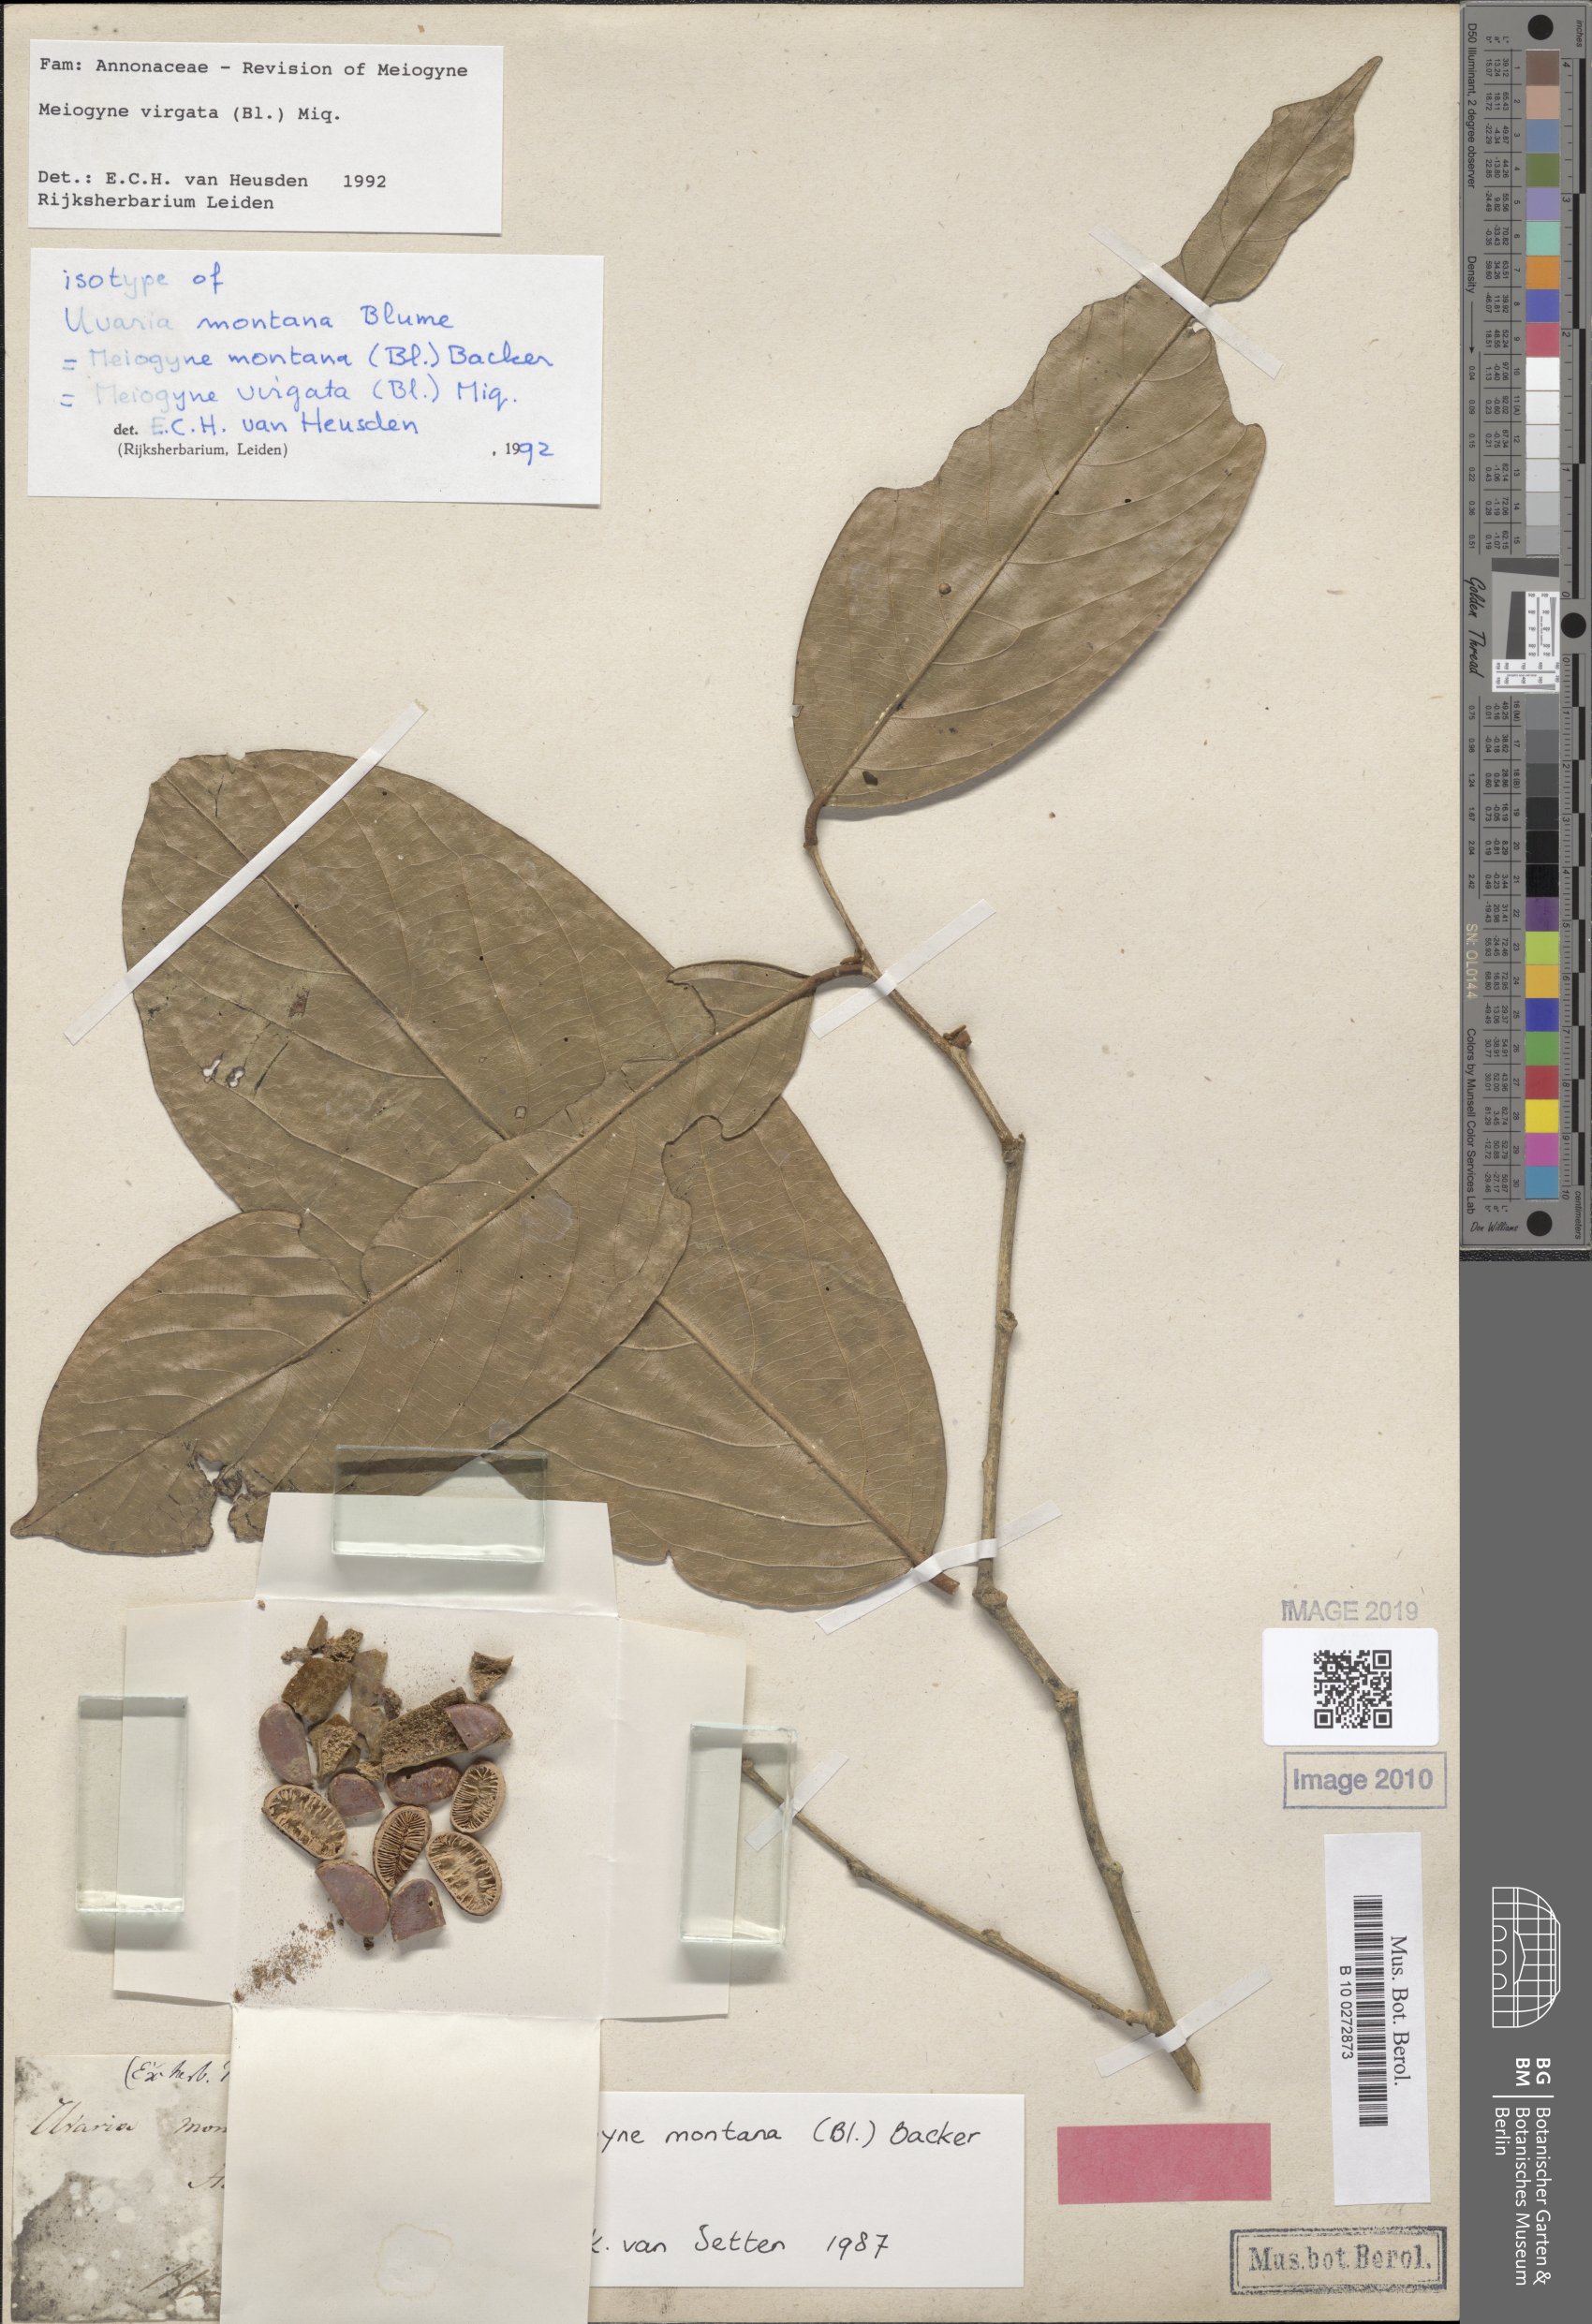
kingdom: Plantae
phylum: Tracheophyta
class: Magnoliopsida
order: Magnoliales
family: Annonaceae
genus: Meiogyne
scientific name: Meiogyne virgata
